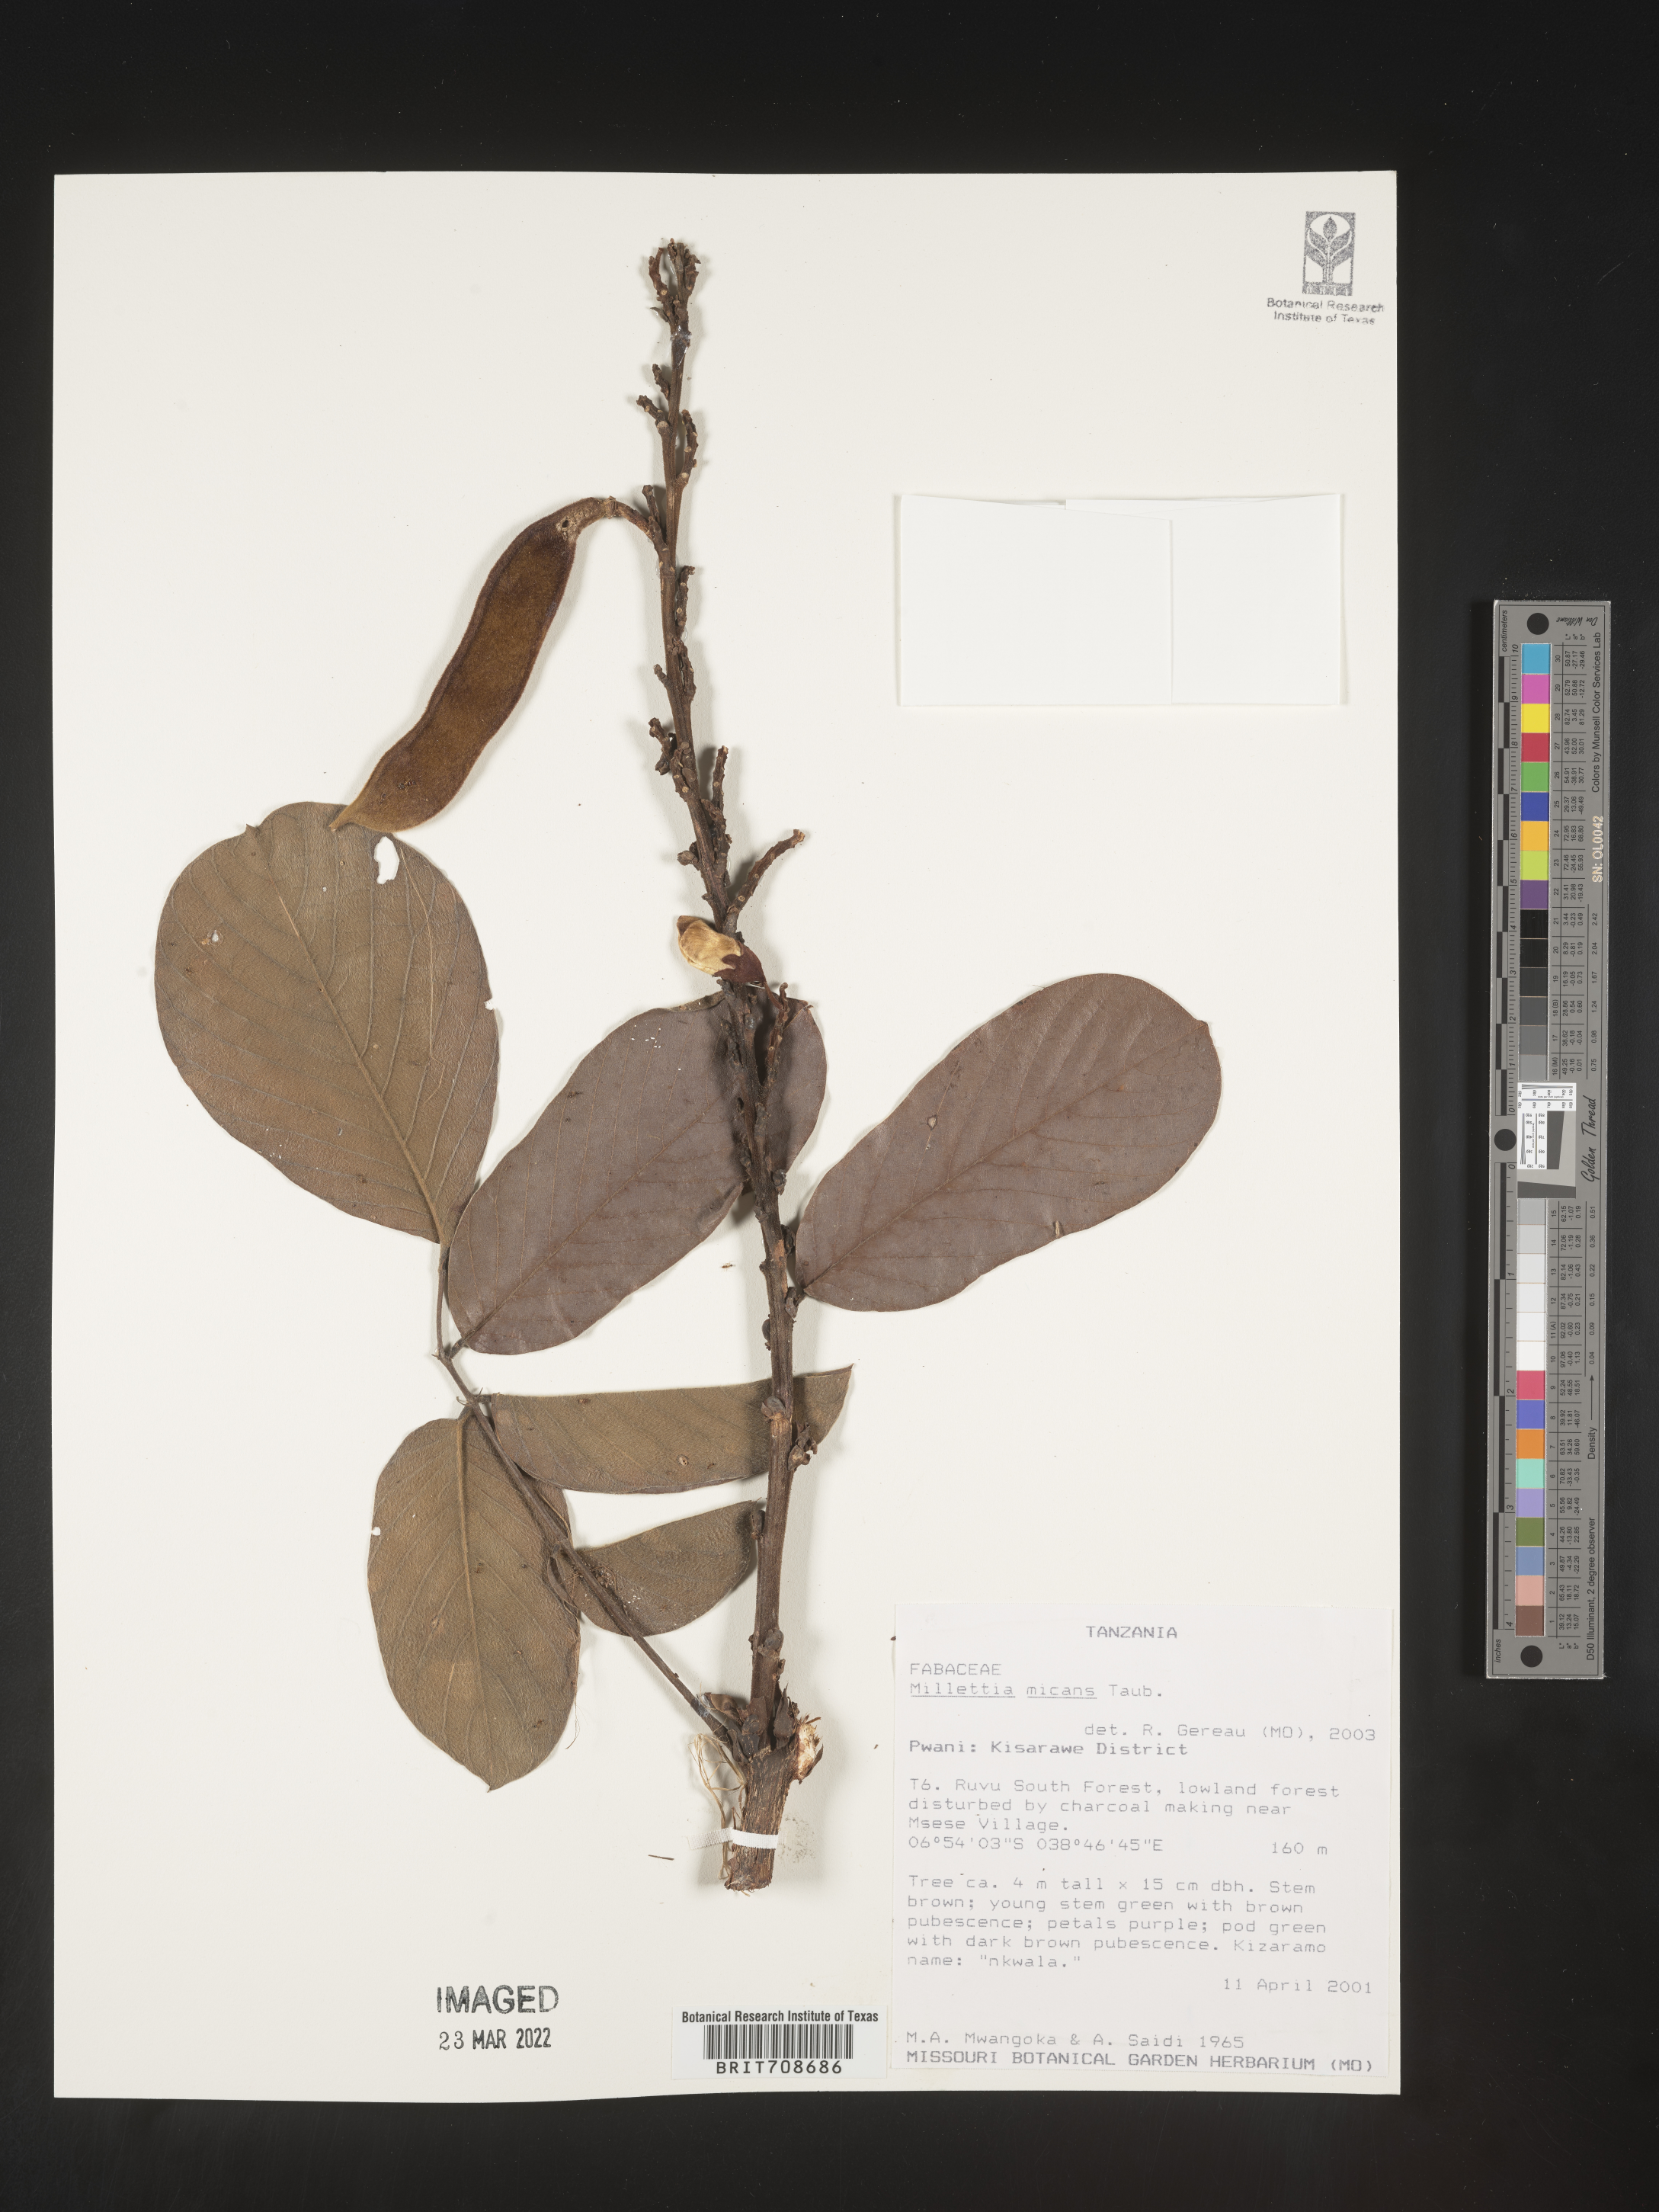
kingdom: Plantae
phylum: Tracheophyta
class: Magnoliopsida
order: Fabales
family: Fabaceae
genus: Millettia
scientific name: Millettia
